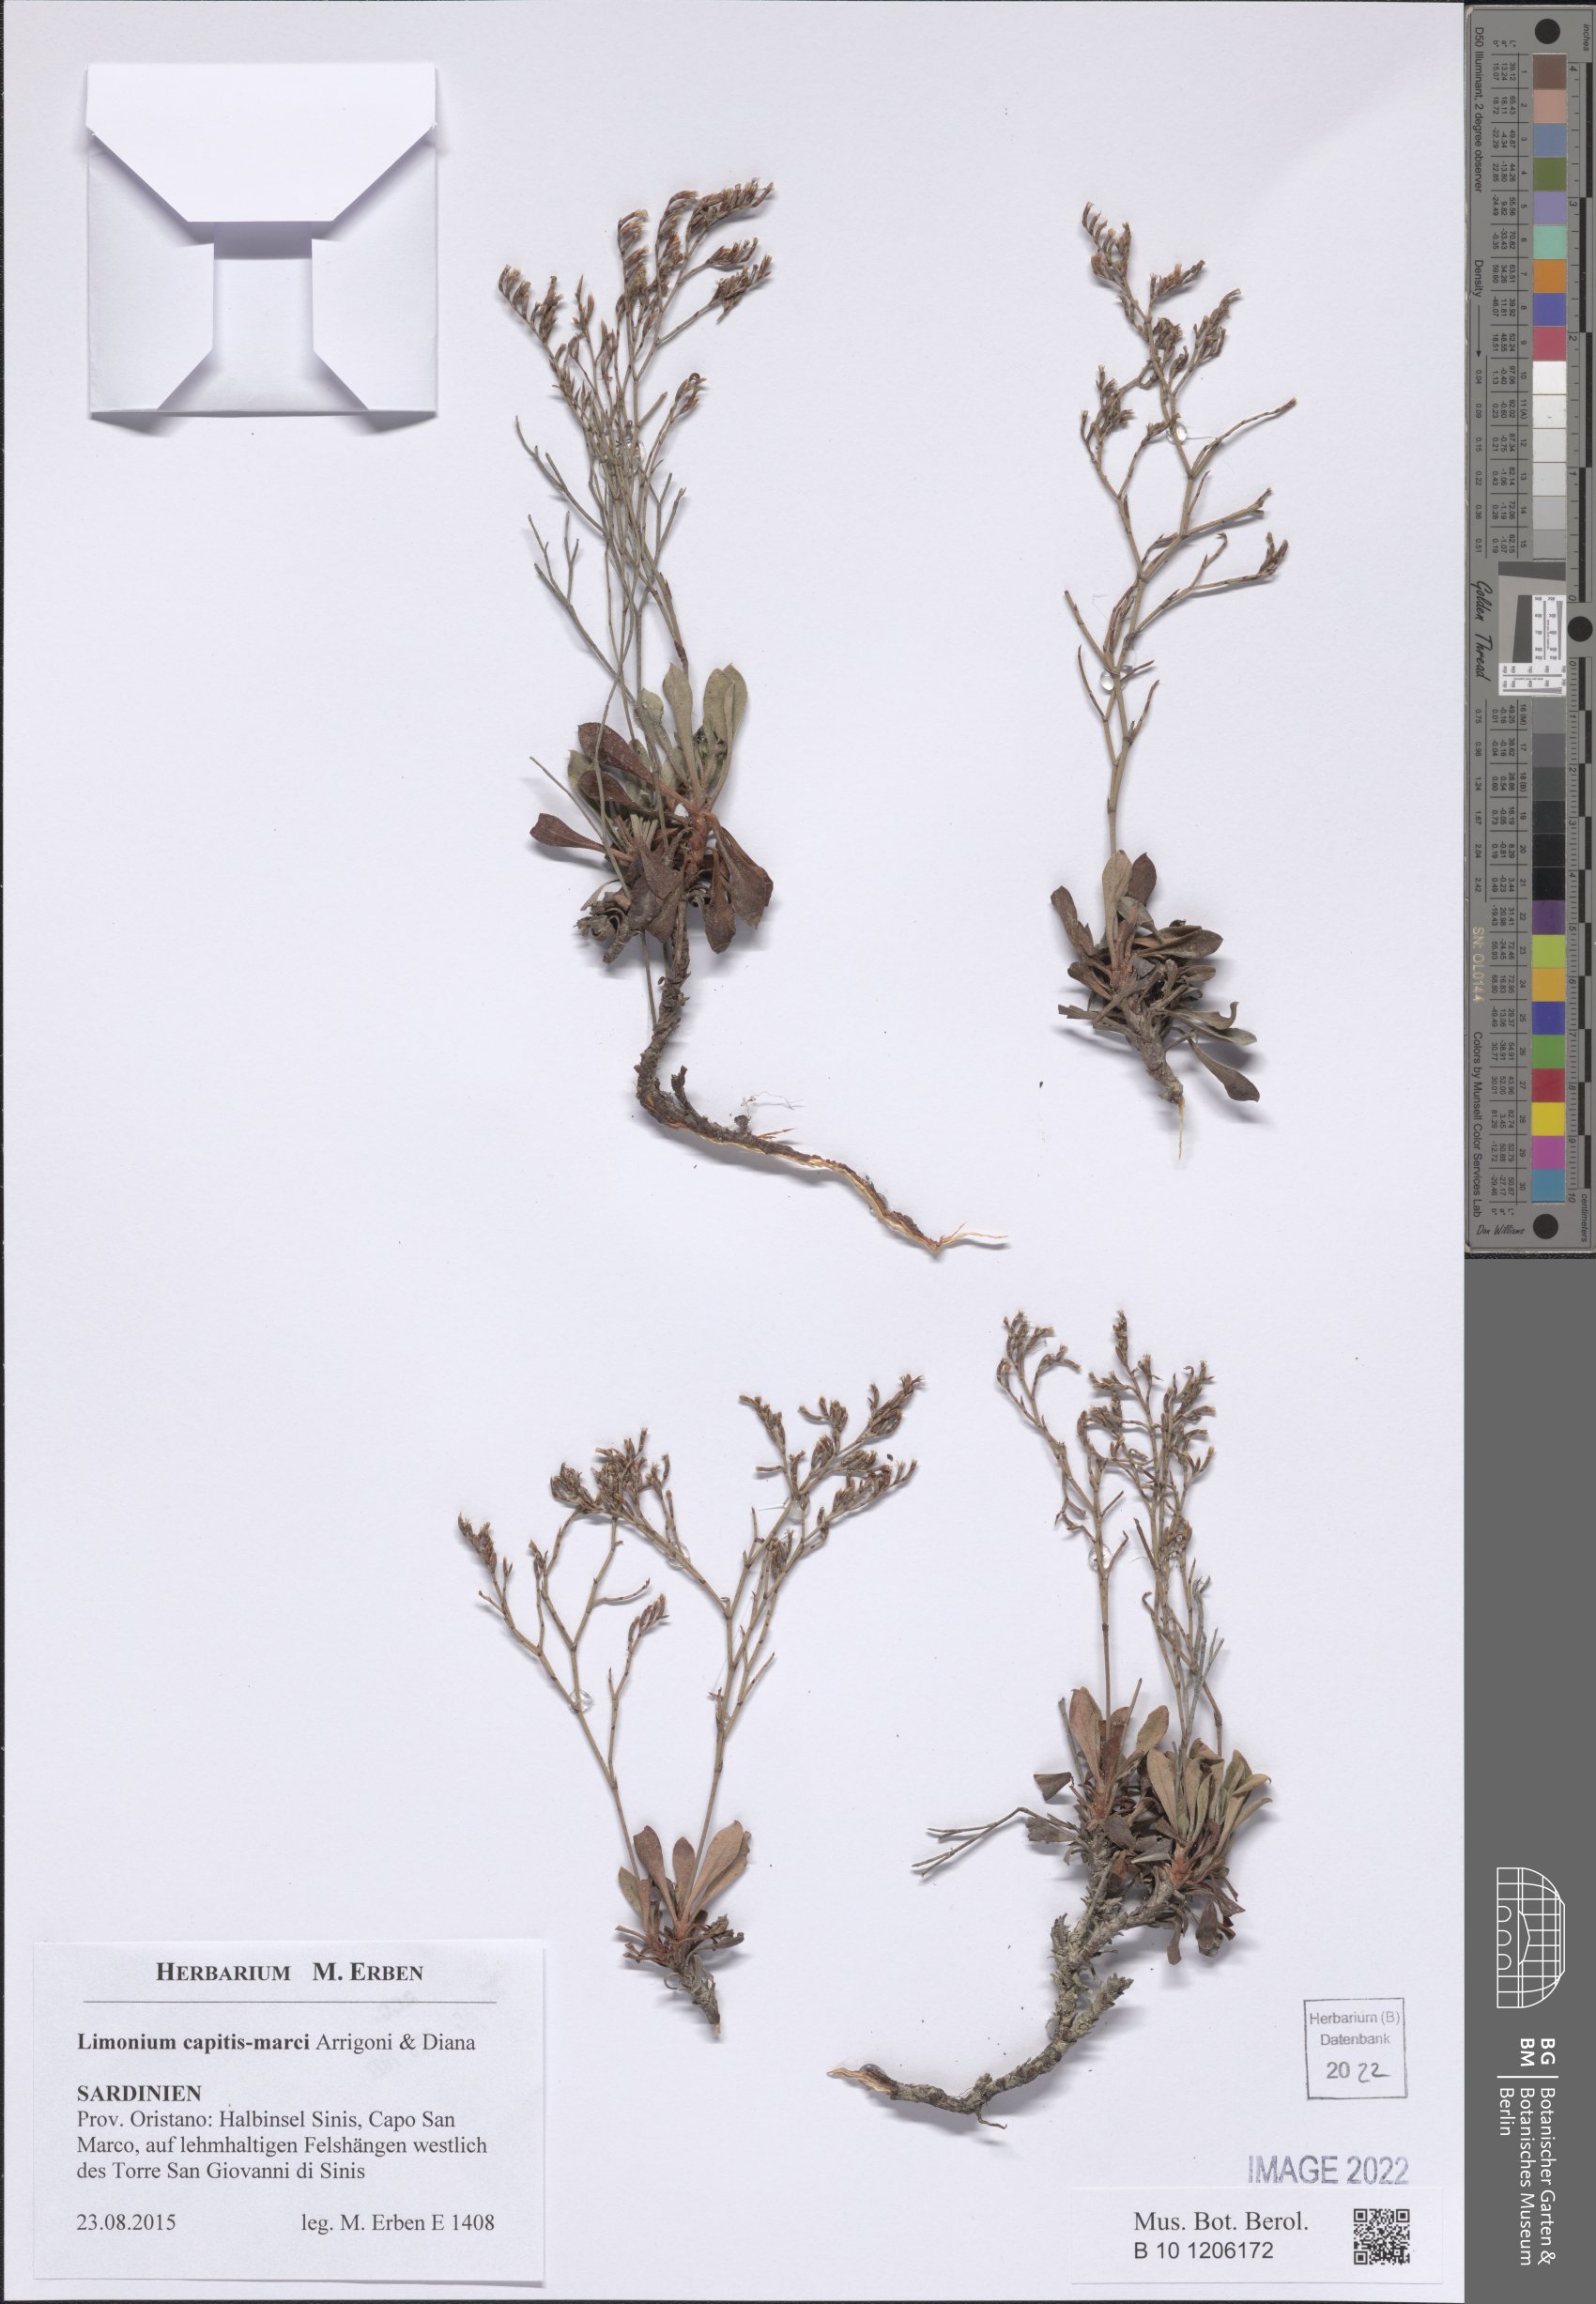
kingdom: Plantae
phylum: Tracheophyta
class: Magnoliopsida
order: Caryophyllales
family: Plumbaginaceae
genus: Limonium
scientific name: Limonium capitis-marci
